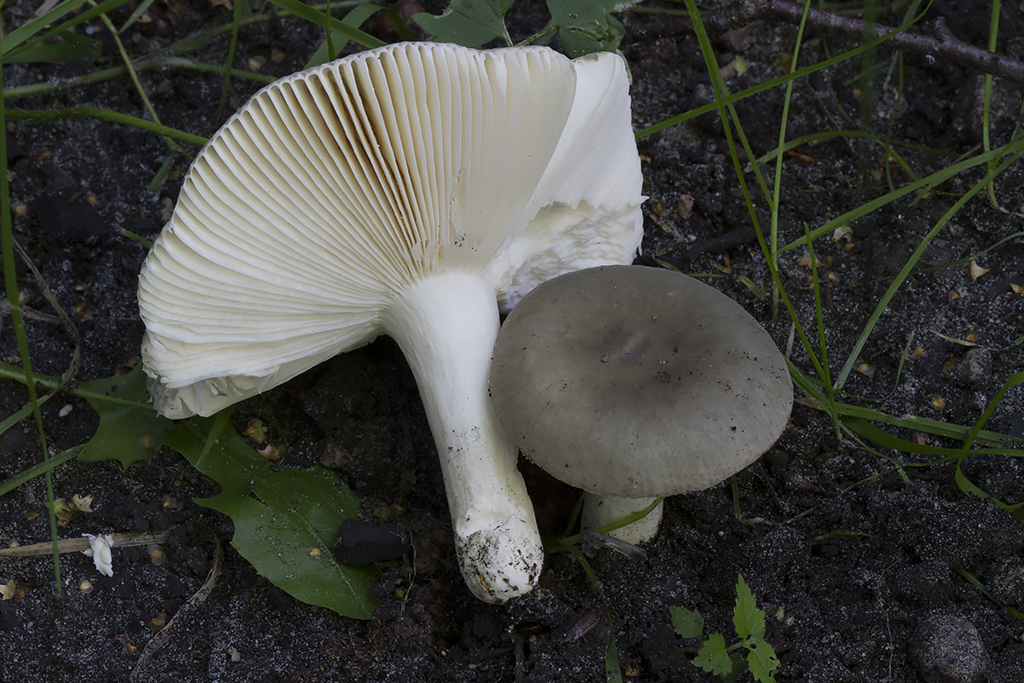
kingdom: Fungi
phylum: Basidiomycota
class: Agaricomycetes
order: Russulales
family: Russulaceae
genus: Russula
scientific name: Russula parazurea
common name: blågrå skørhat
